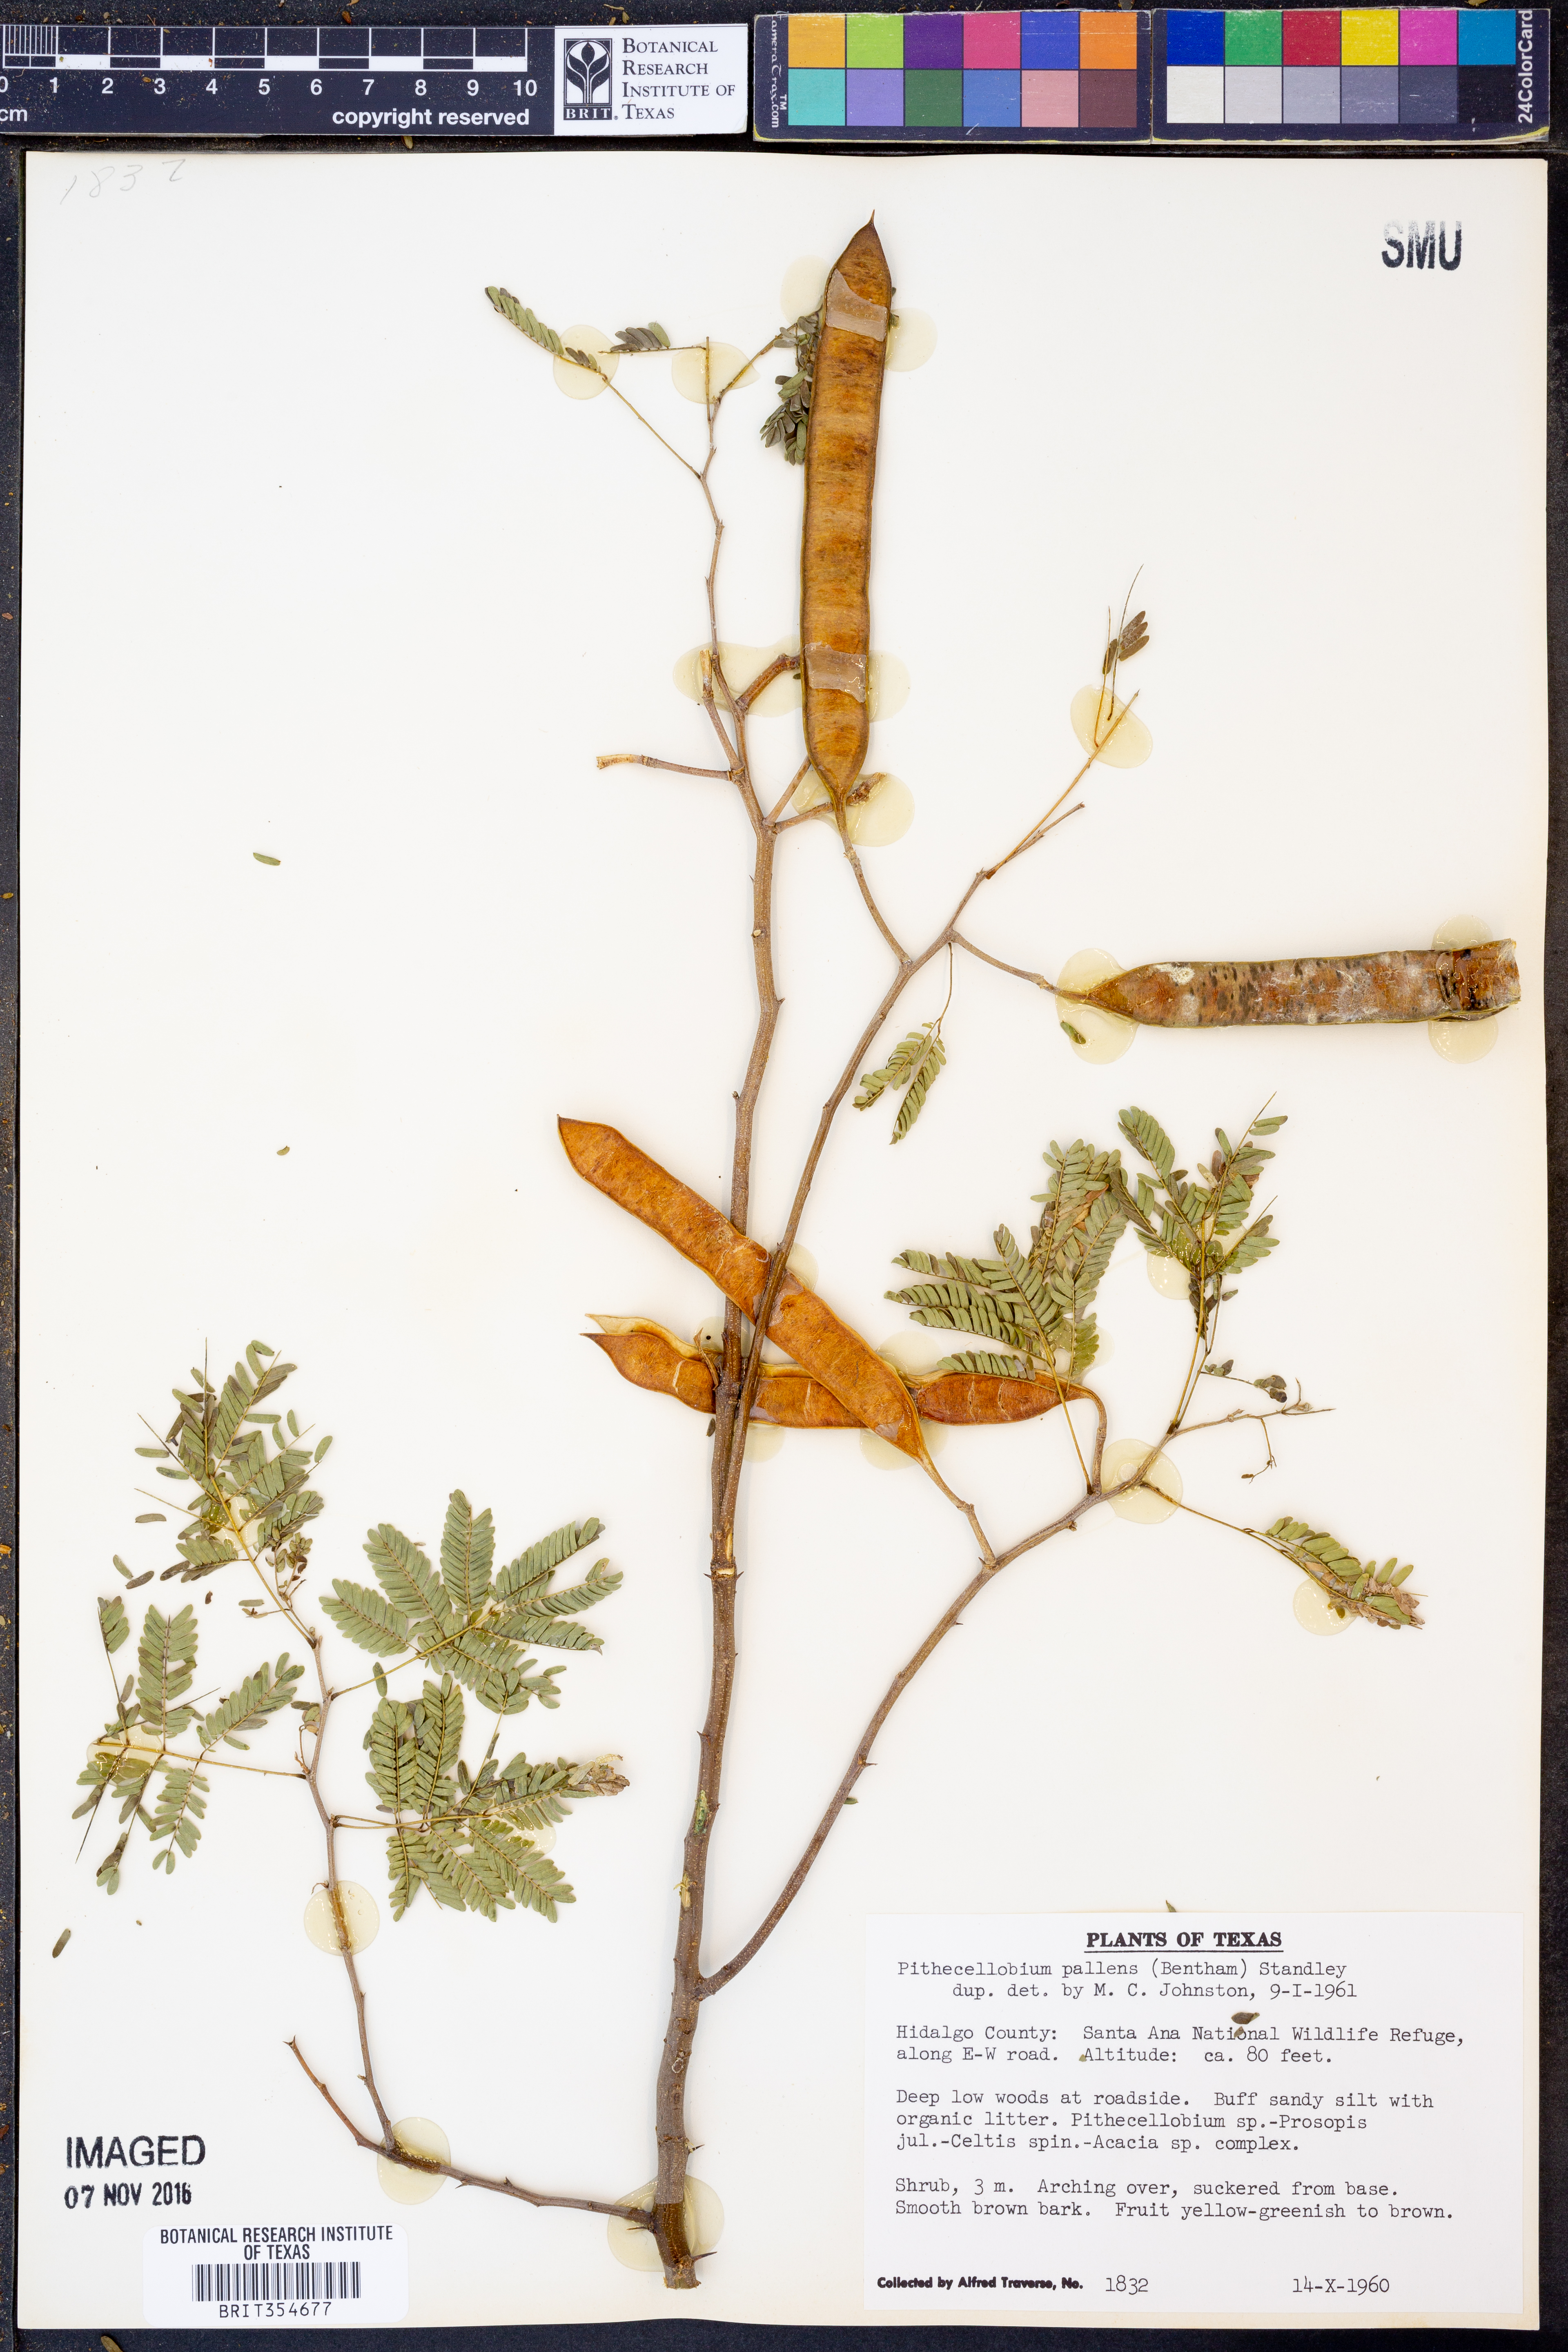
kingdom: Plantae
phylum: Tracheophyta
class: Magnoliopsida
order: Fabales
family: Fabaceae
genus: Havardia
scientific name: Havardia pallens
